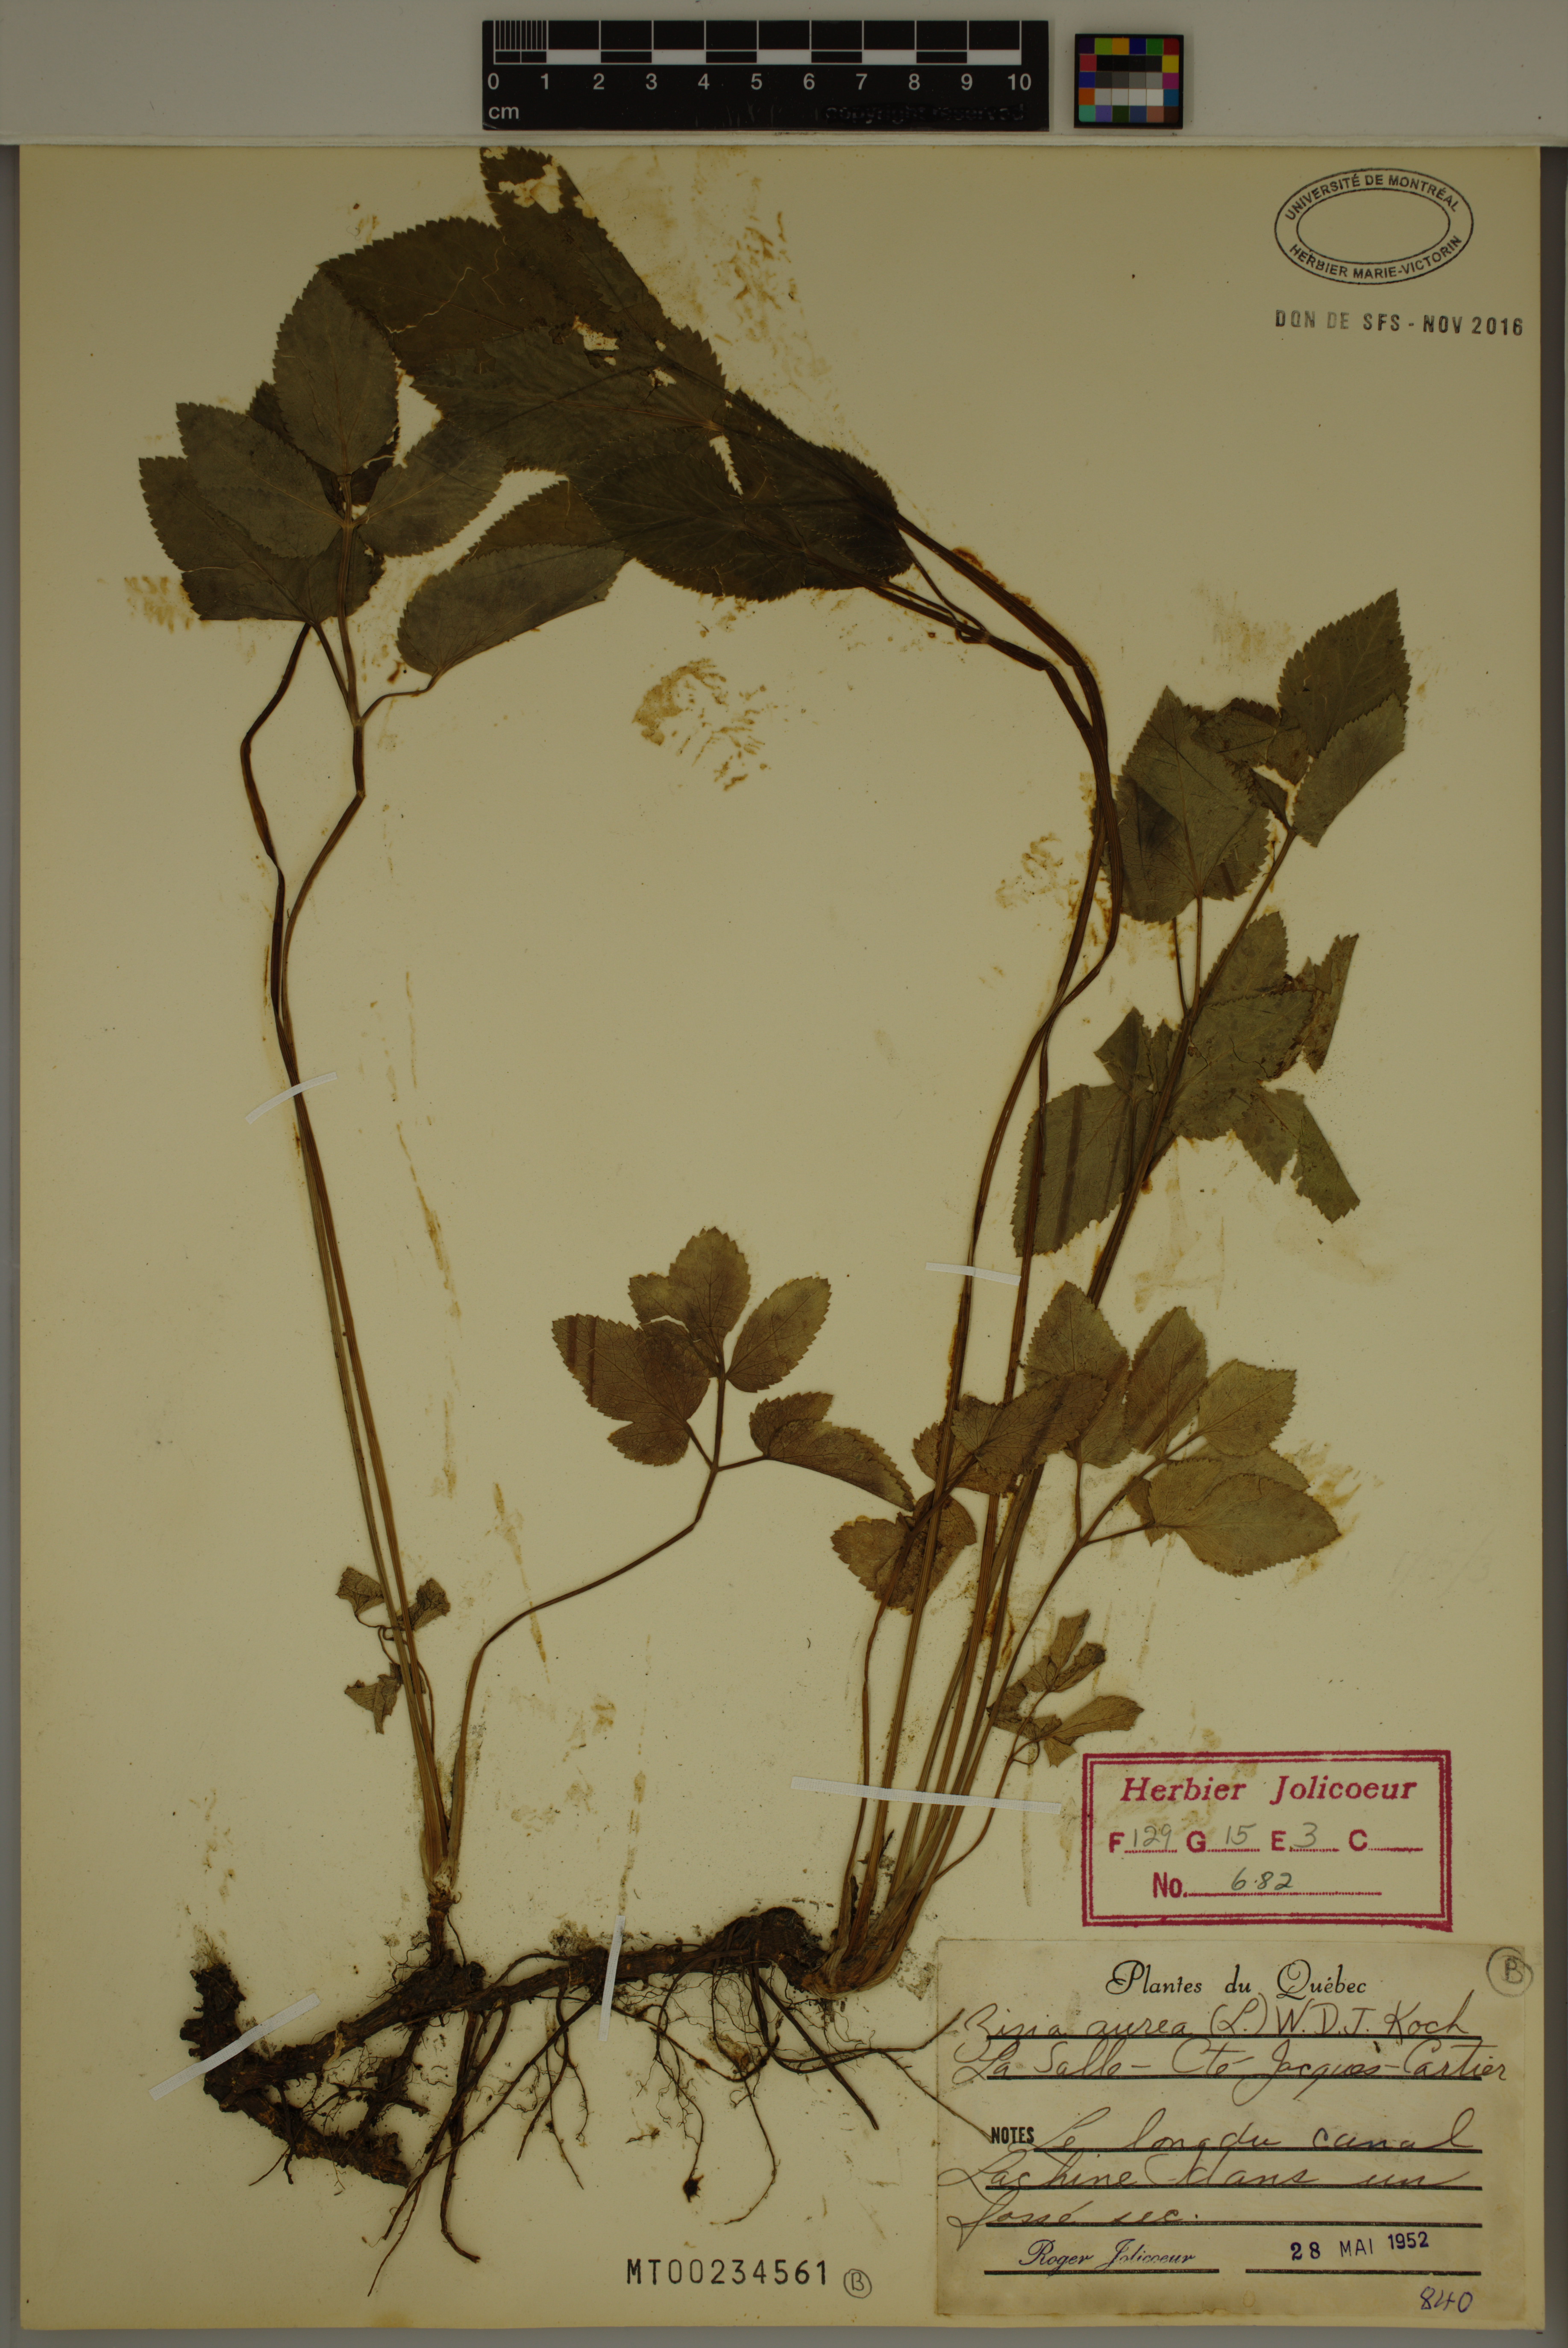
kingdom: Plantae
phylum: Tracheophyta
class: Magnoliopsida
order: Apiales
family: Apiaceae
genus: Zizia
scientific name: Zizia aurea
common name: Golden alexanders
